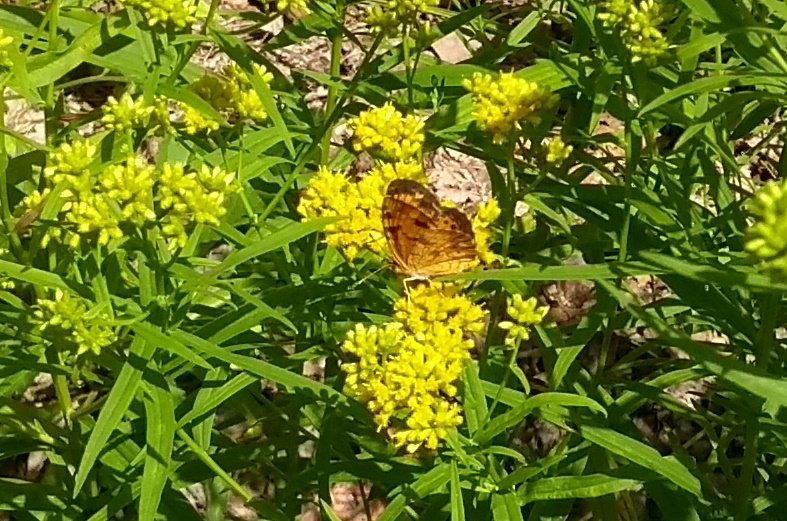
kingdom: Animalia
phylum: Arthropoda
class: Insecta
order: Lepidoptera
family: Nymphalidae
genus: Phyciodes
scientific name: Phyciodes tharos
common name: Northern Crescent
